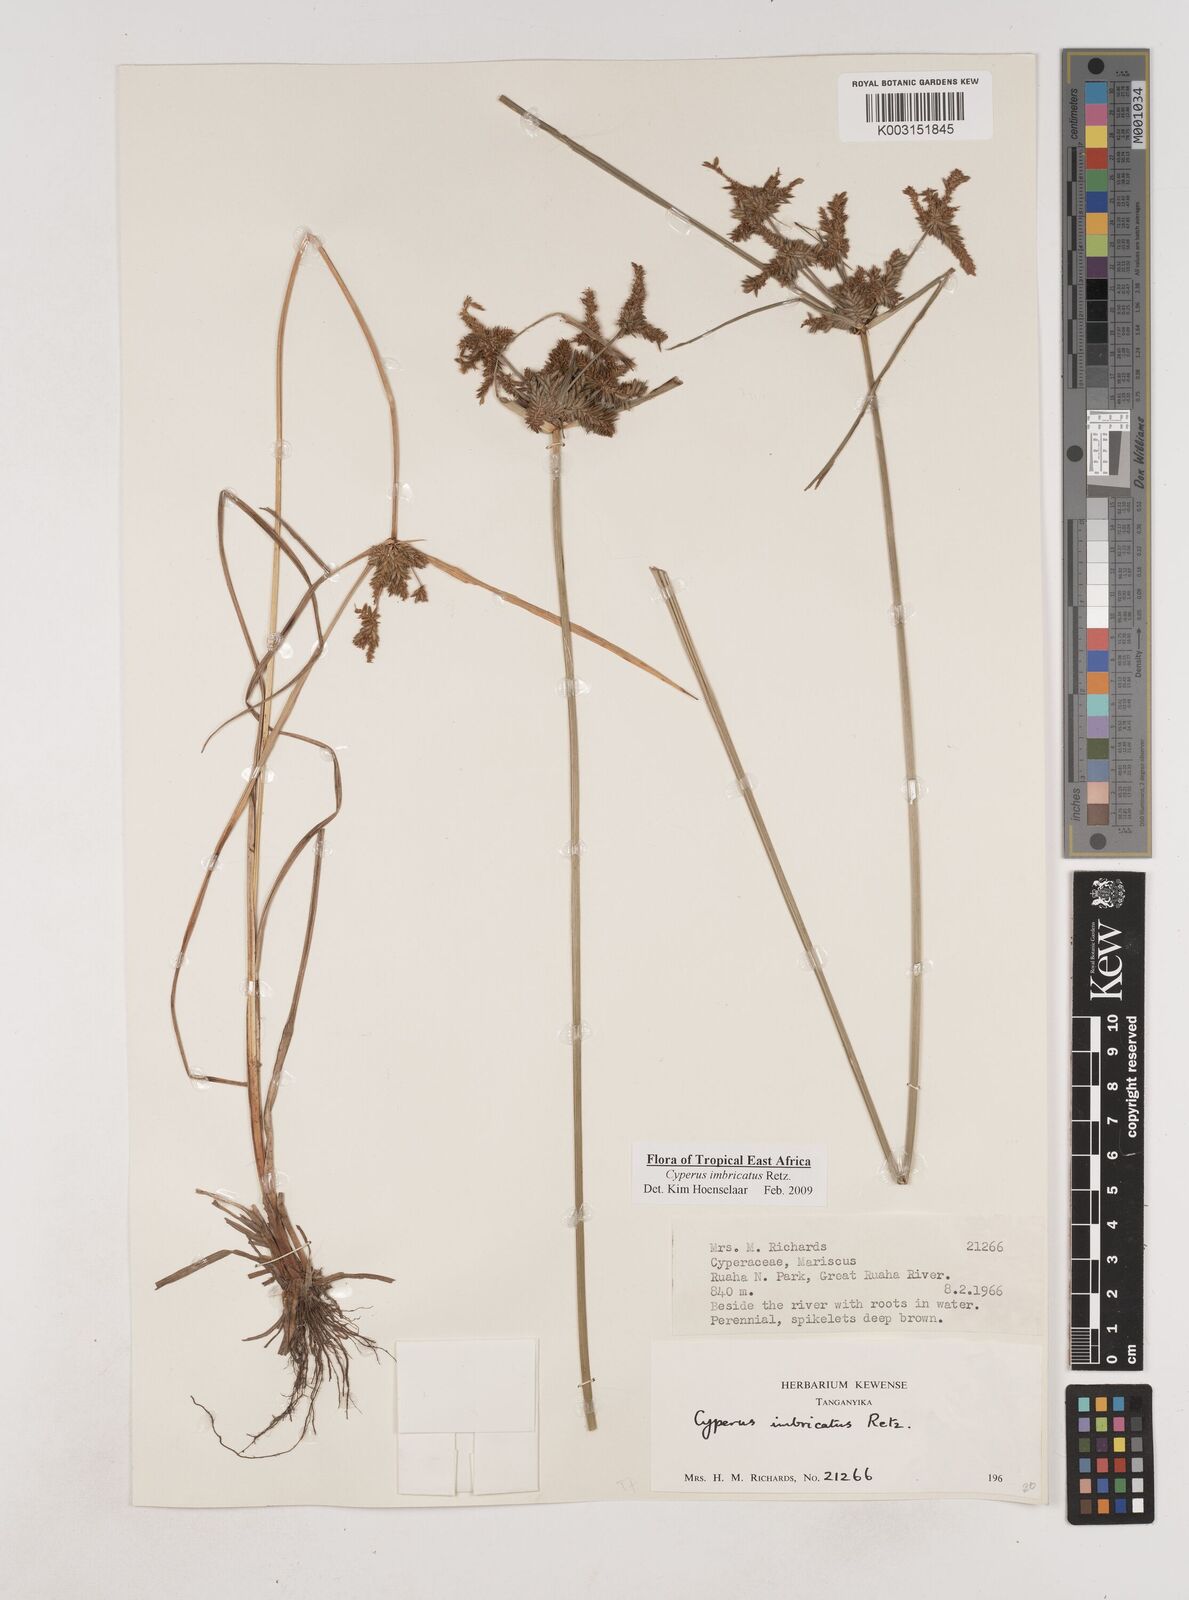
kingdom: Plantae
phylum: Tracheophyta
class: Liliopsida
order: Poales
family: Cyperaceae
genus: Cyperus
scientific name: Cyperus imbricatus
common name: Shingle flatsedge
